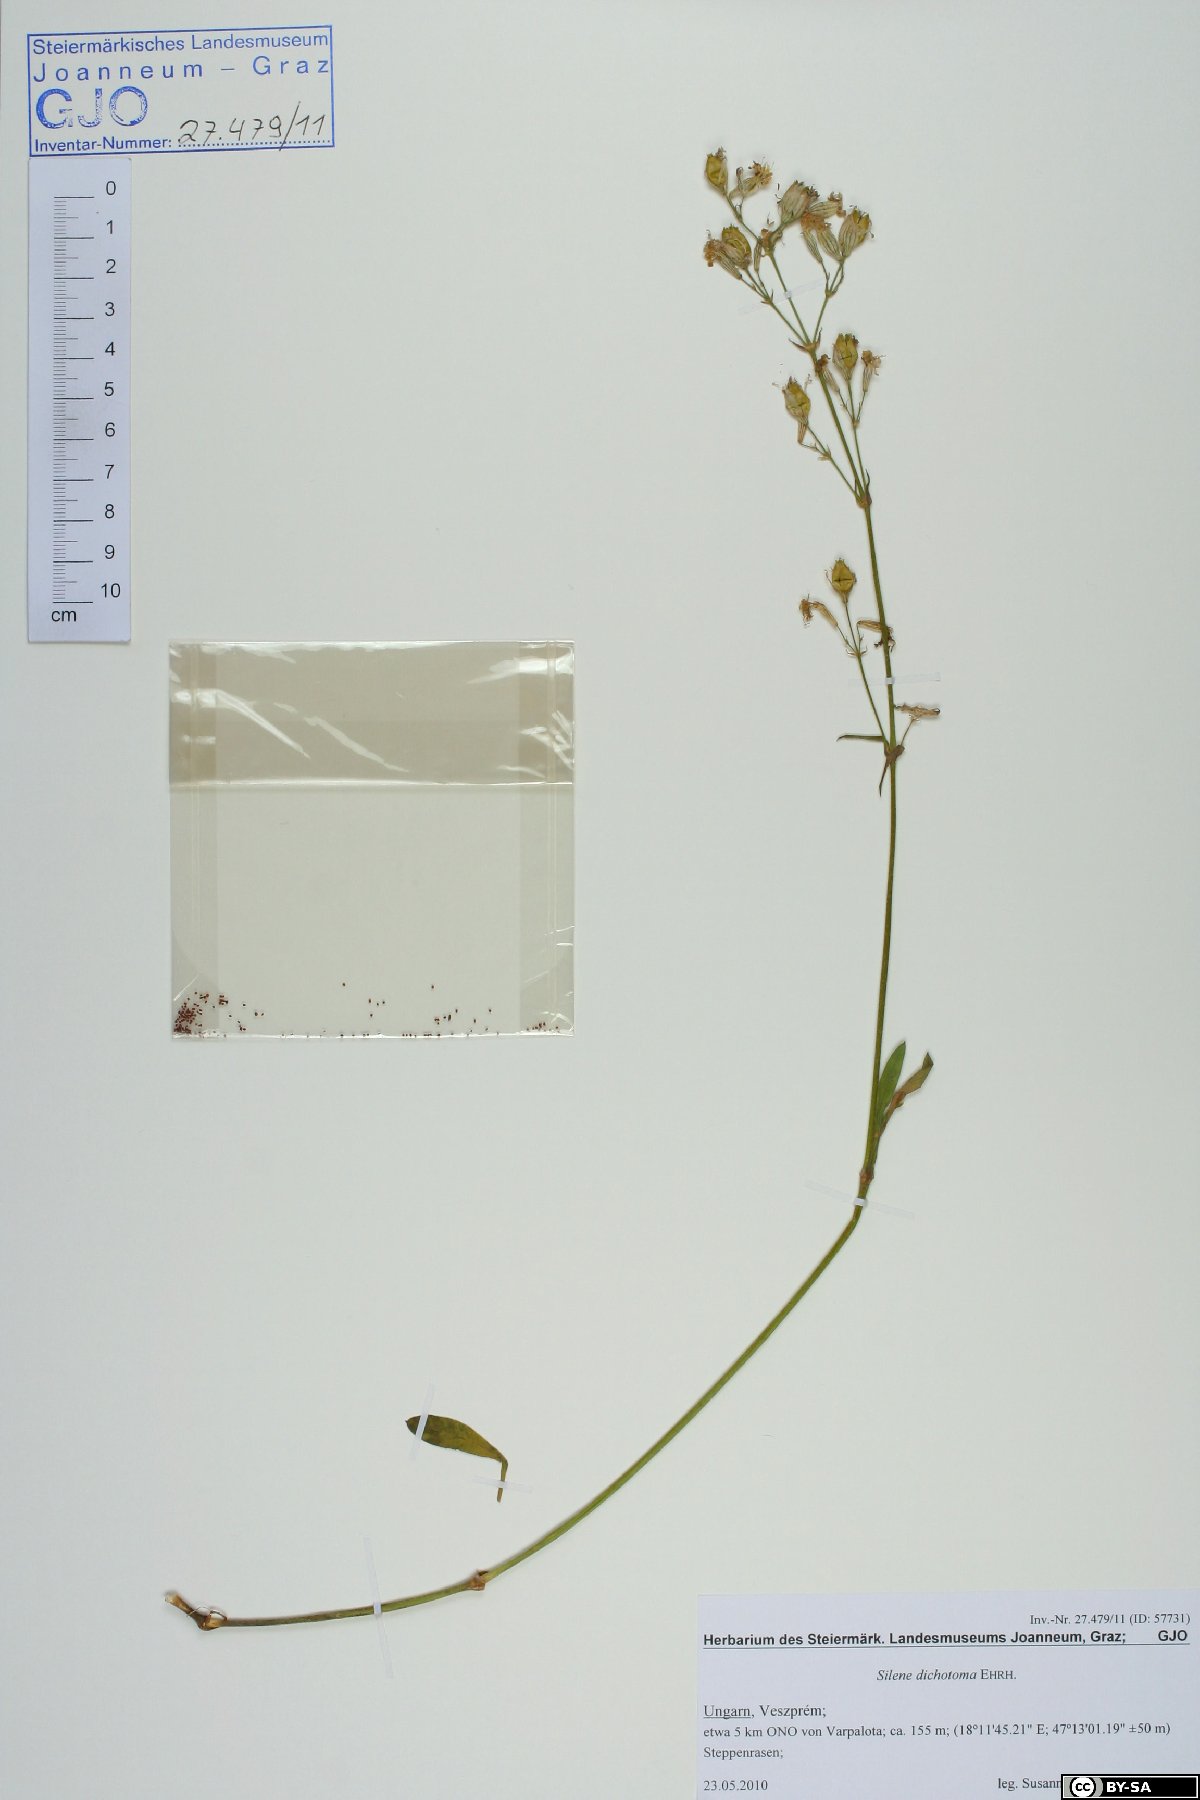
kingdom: Plantae
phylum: Tracheophyta
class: Magnoliopsida
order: Caryophyllales
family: Caryophyllaceae
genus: Silene
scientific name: Silene dichotoma
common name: Forked catchfly
